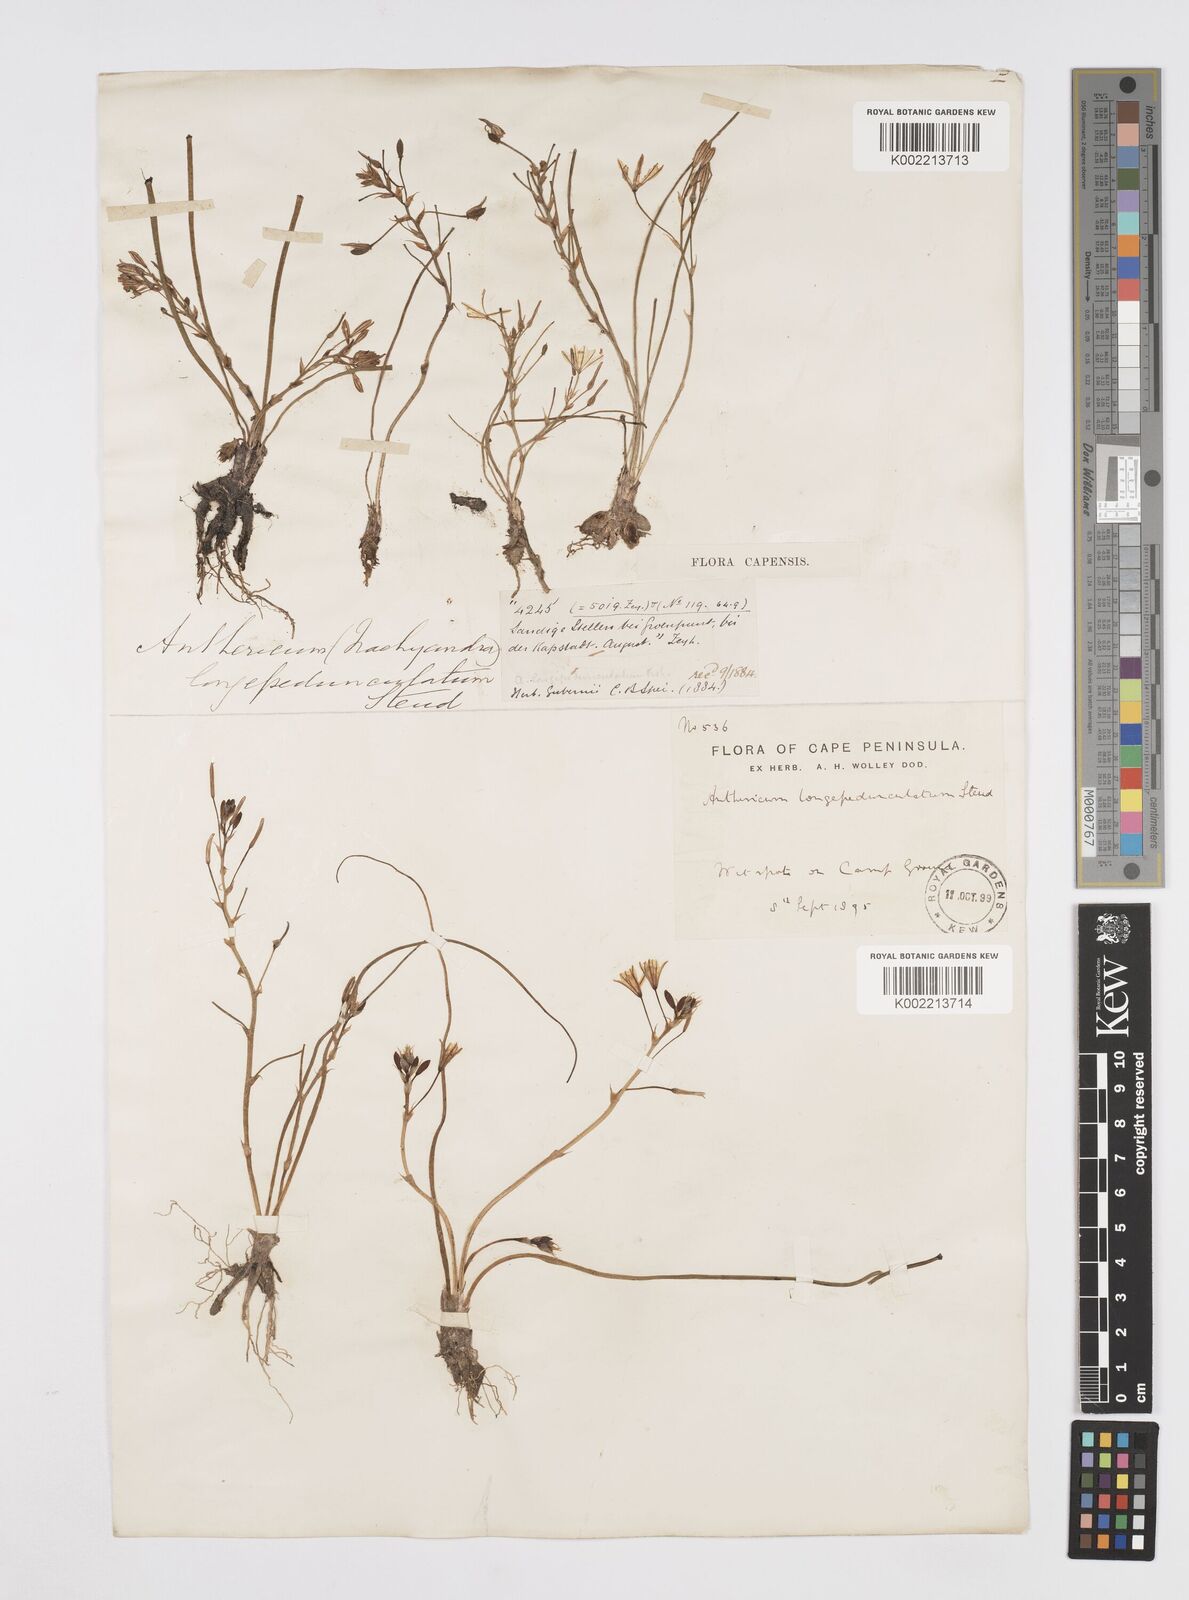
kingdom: Plantae
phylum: Tracheophyta
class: Liliopsida
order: Asparagales
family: Asphodelaceae
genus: Trachyandra
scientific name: Trachyandra filiformis
